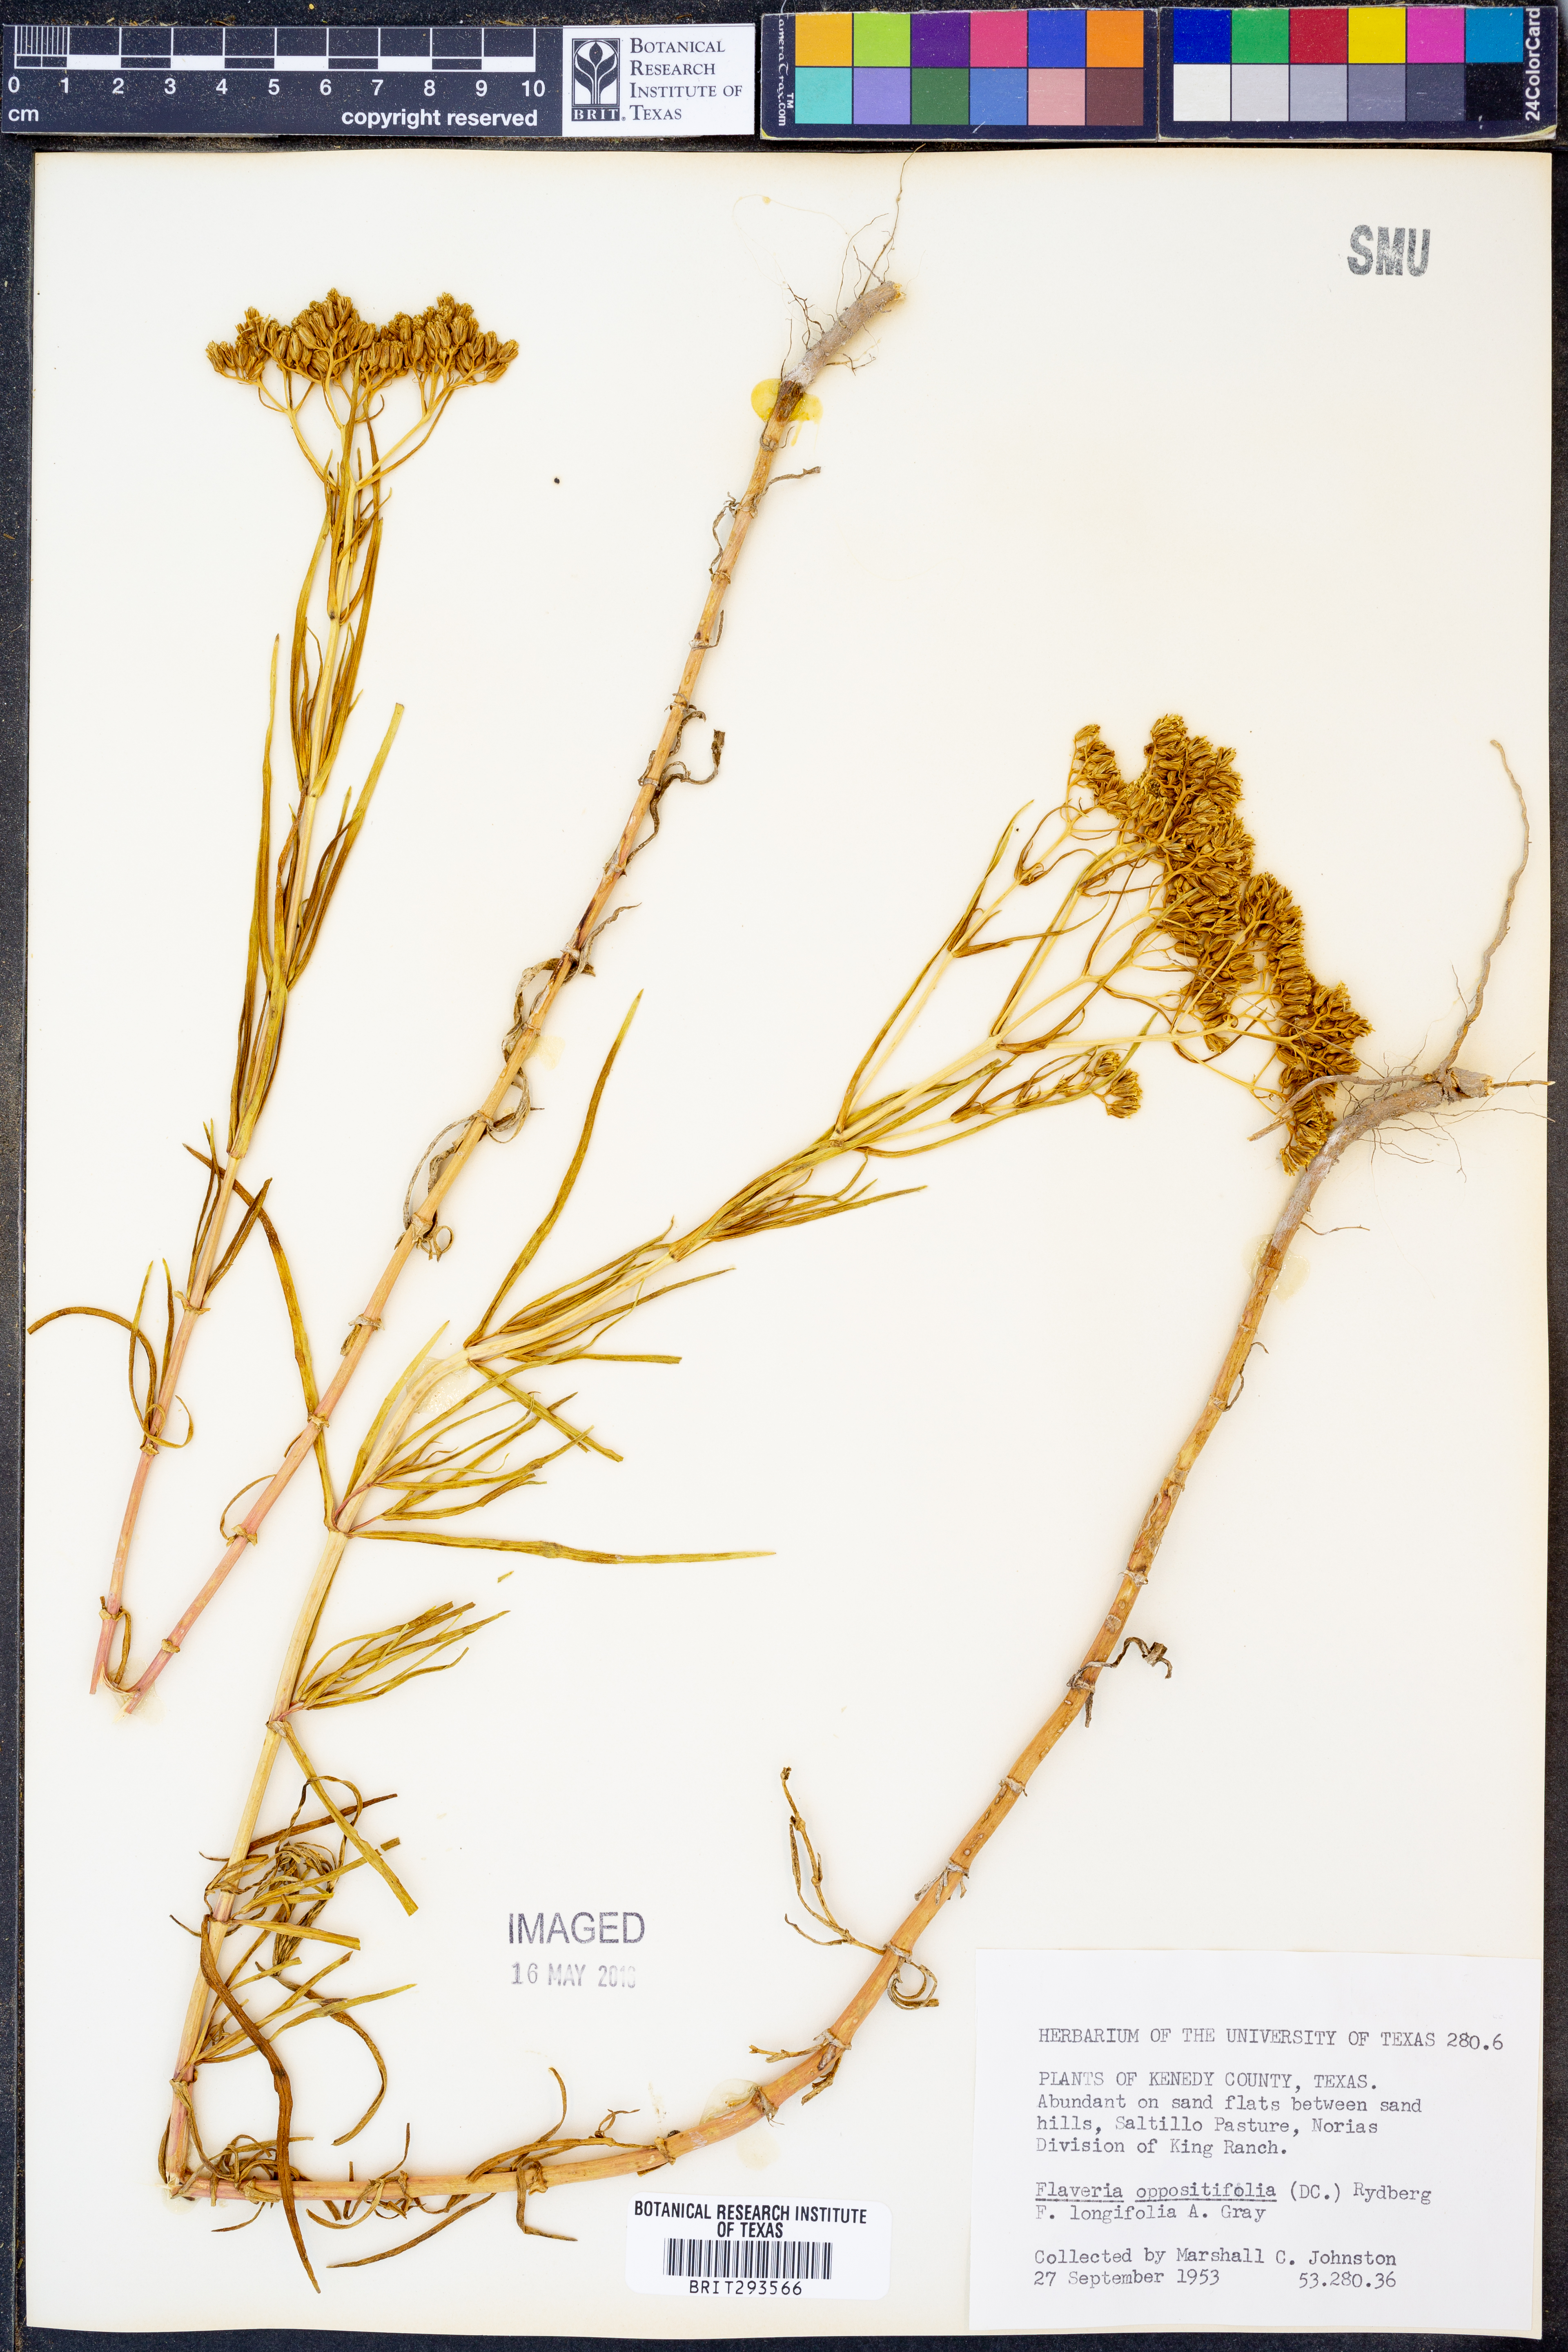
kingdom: Plantae
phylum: Tracheophyta
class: Magnoliopsida
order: Asterales
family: Asteraceae
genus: Flaveria
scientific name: Flaveria oppositifolia
